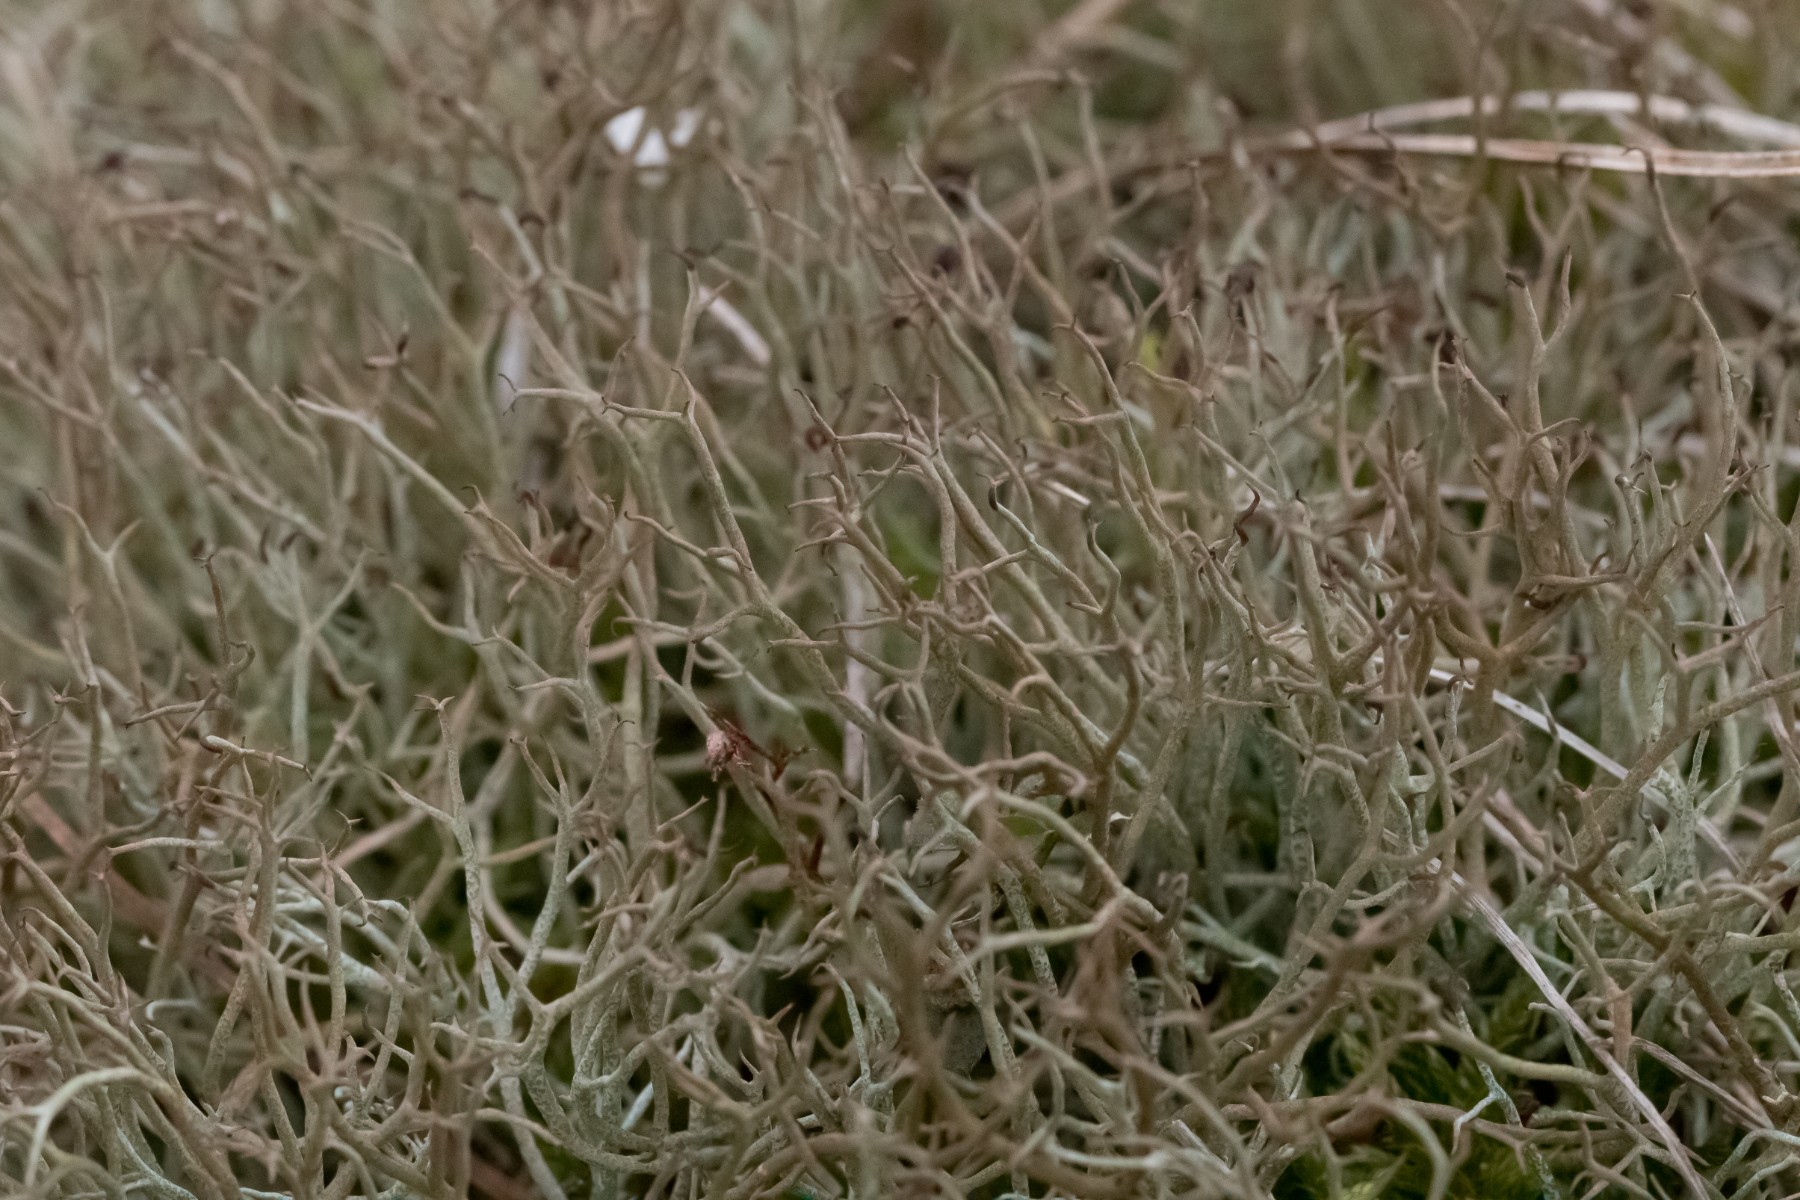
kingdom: Fungi
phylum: Ascomycota
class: Lecanoromycetes
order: Lecanorales
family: Cladoniaceae
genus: Cladonia
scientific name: Cladonia furcata
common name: kløftet bægerlav
